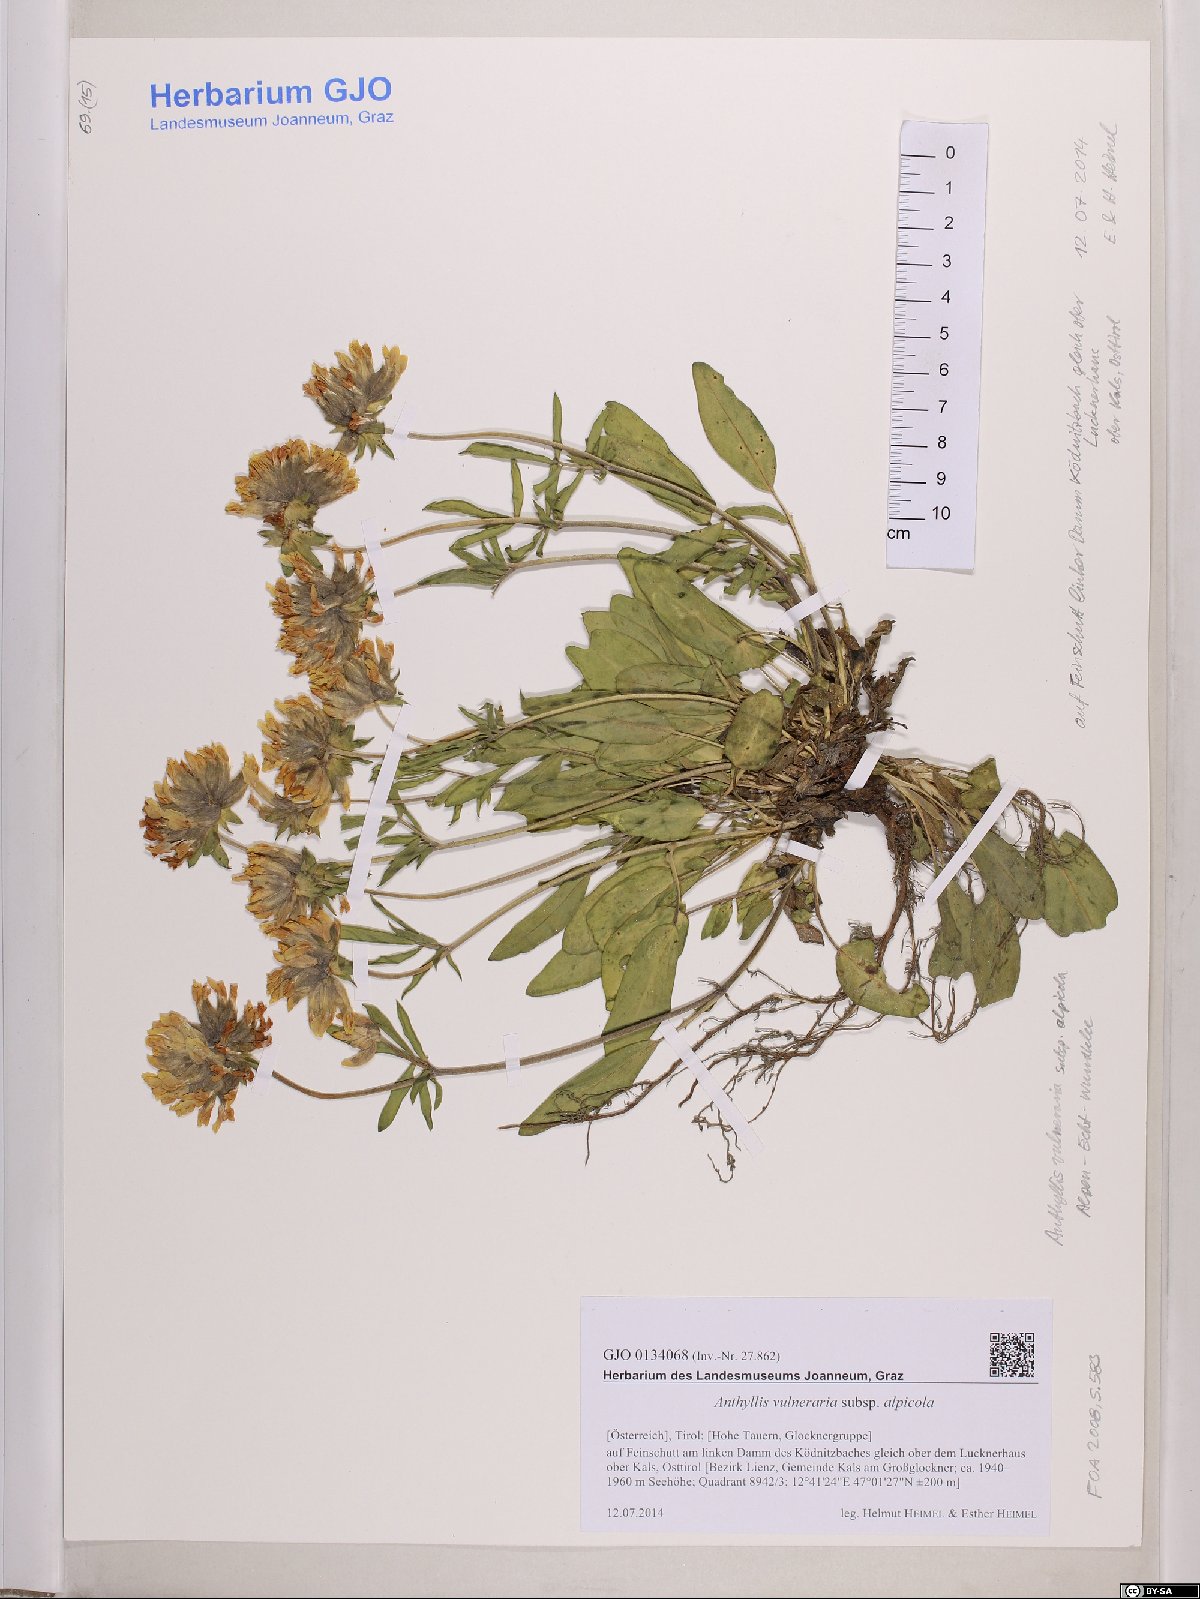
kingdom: Plantae
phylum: Tracheophyta
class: Magnoliopsida
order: Fabales
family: Fabaceae
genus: Anthyllis
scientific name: Anthyllis vulneraria
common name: Kidney vetch
